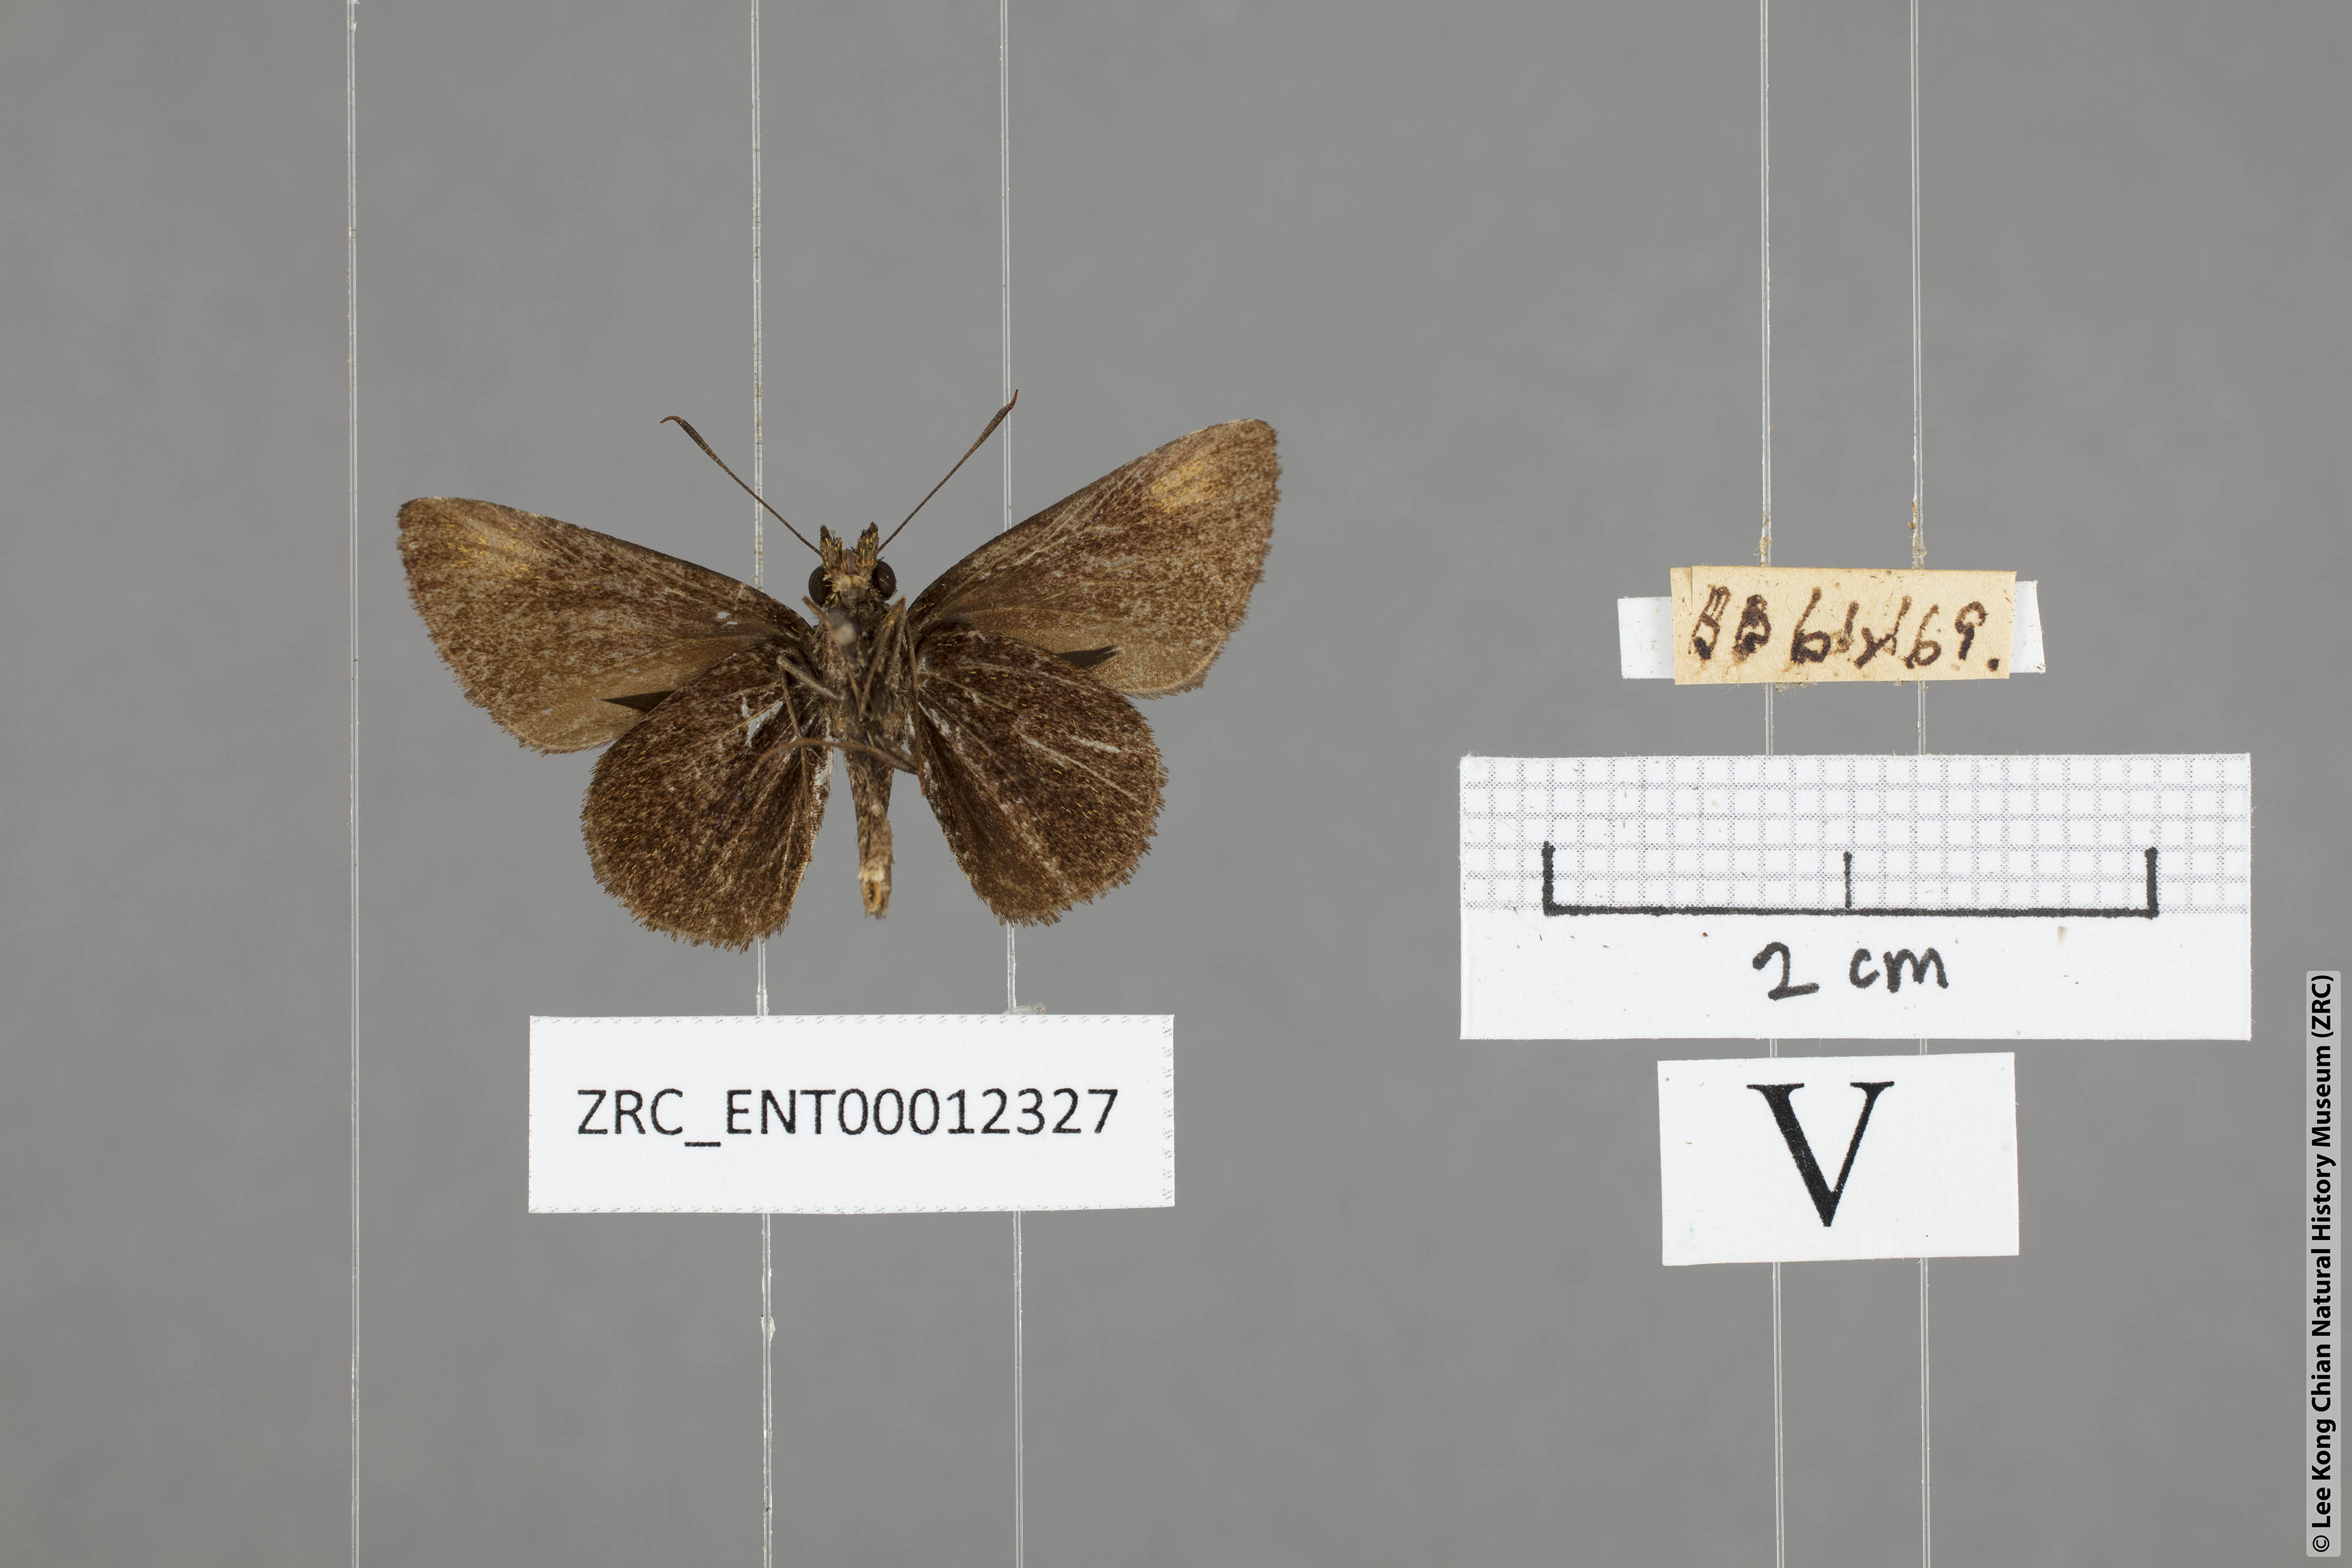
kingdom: Animalia
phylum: Arthropoda
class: Insecta
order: Lepidoptera
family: Hesperiidae
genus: Arnetta
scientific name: Arnetta verones
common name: Sumatran bob
